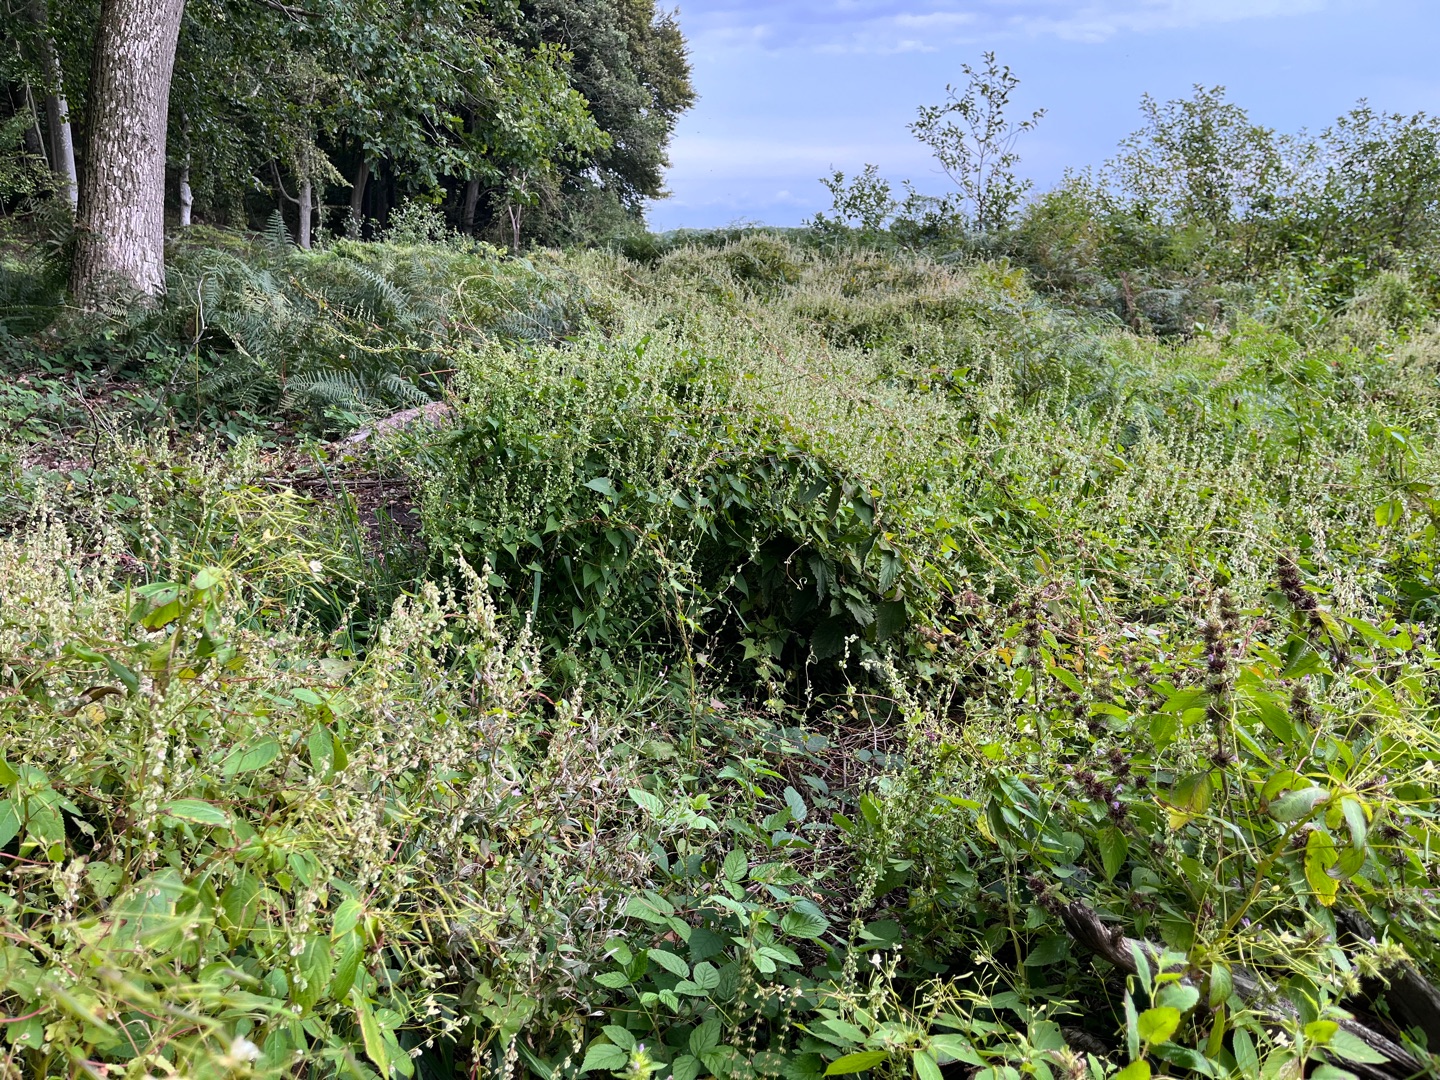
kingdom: Plantae
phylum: Tracheophyta
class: Magnoliopsida
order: Caryophyllales
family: Polygonaceae
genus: Fallopia
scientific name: Fallopia dumetorum
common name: Vinge-pileurt
